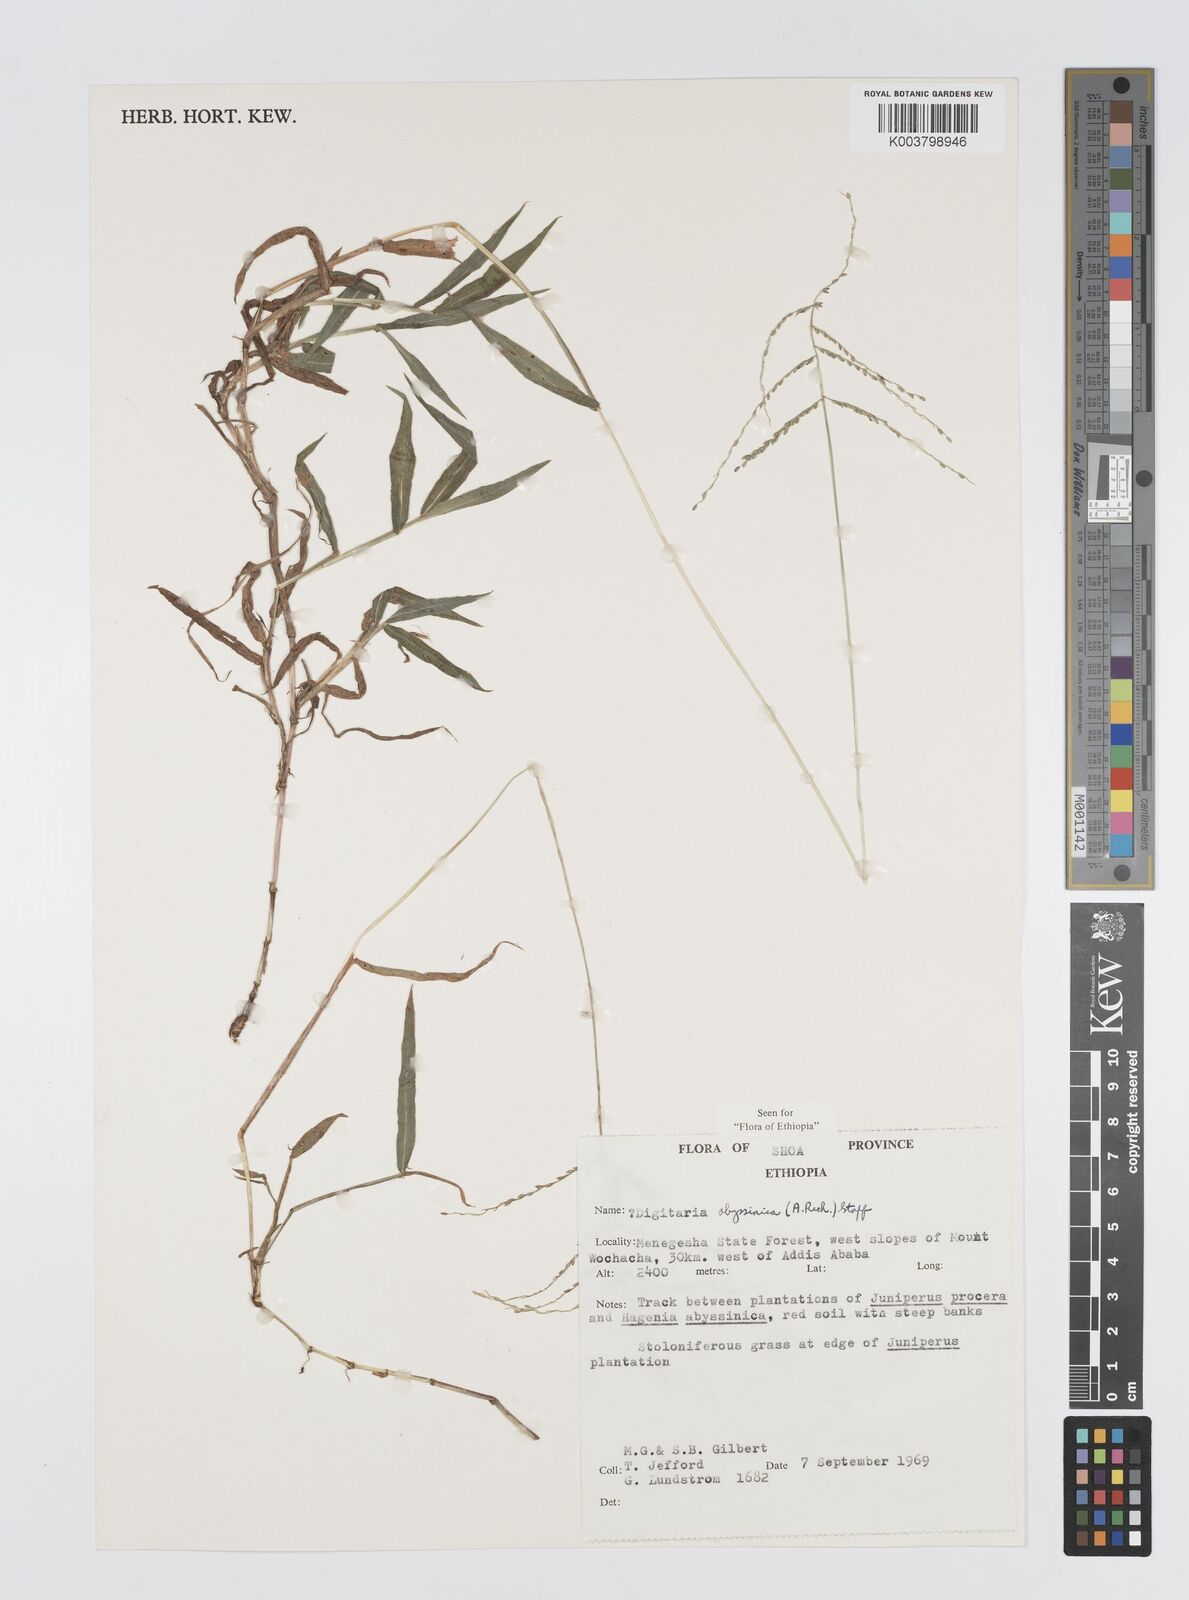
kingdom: Plantae
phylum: Tracheophyta
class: Liliopsida
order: Poales
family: Poaceae
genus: Digitaria
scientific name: Digitaria abyssinica
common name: African couchgrass
